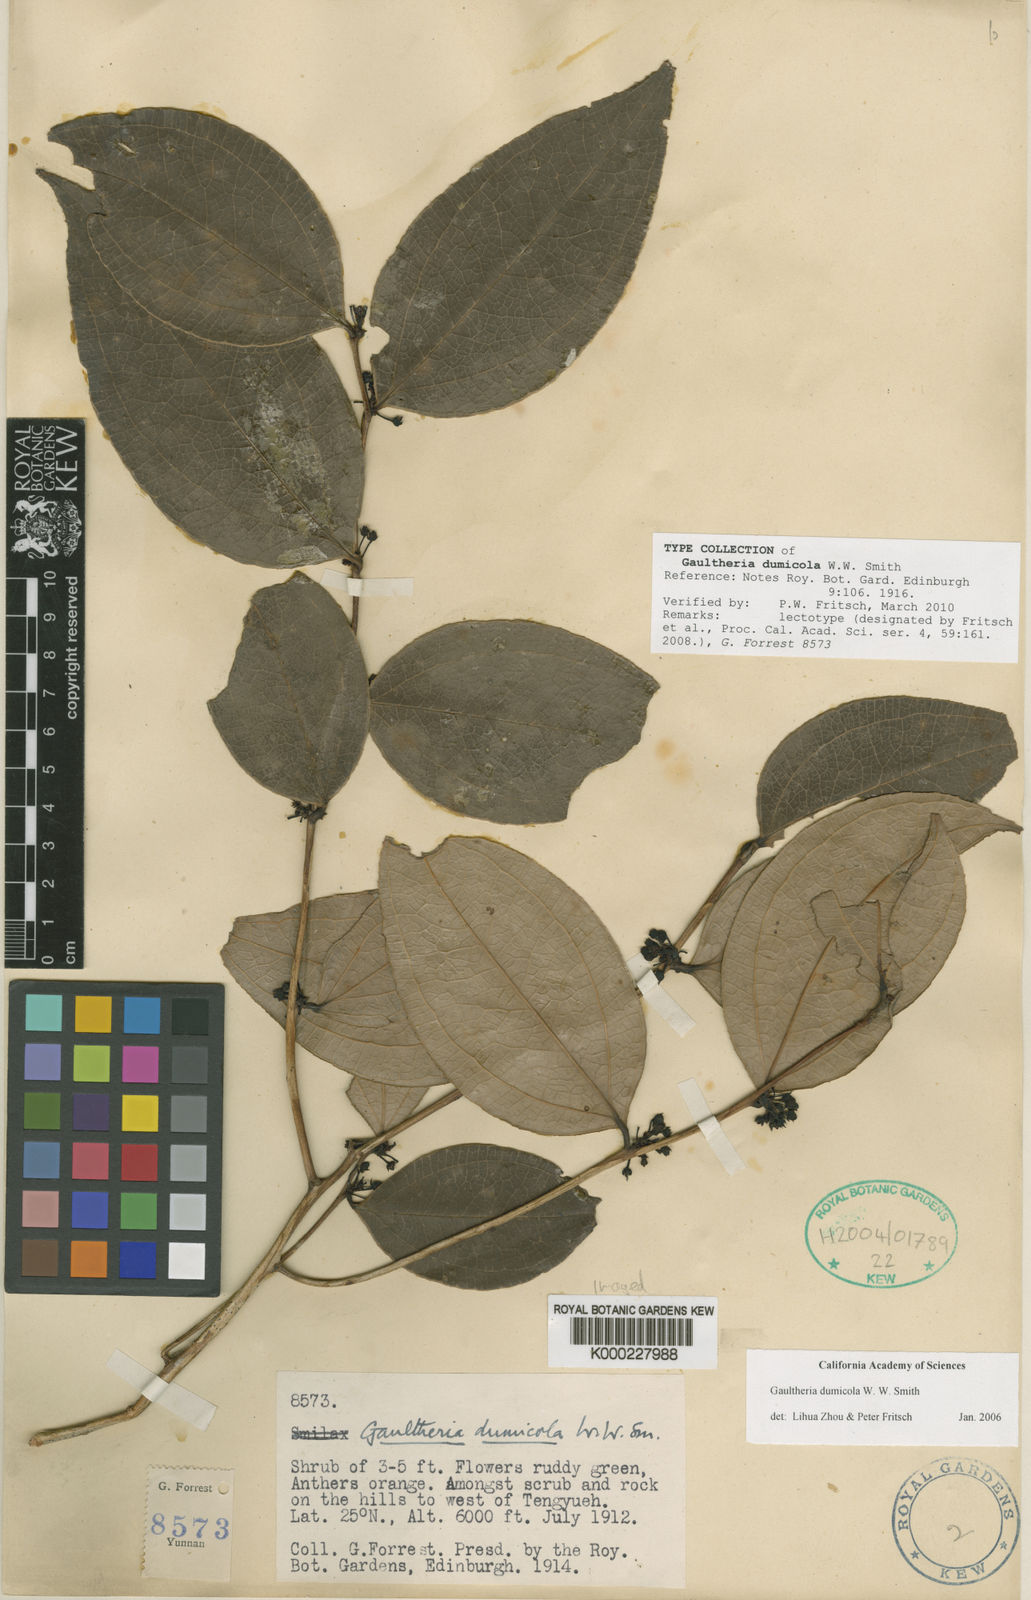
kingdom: Plantae
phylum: Tracheophyta
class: Magnoliopsida
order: Ericales
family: Ericaceae
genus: Gaultheria
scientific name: Gaultheria dumicola
